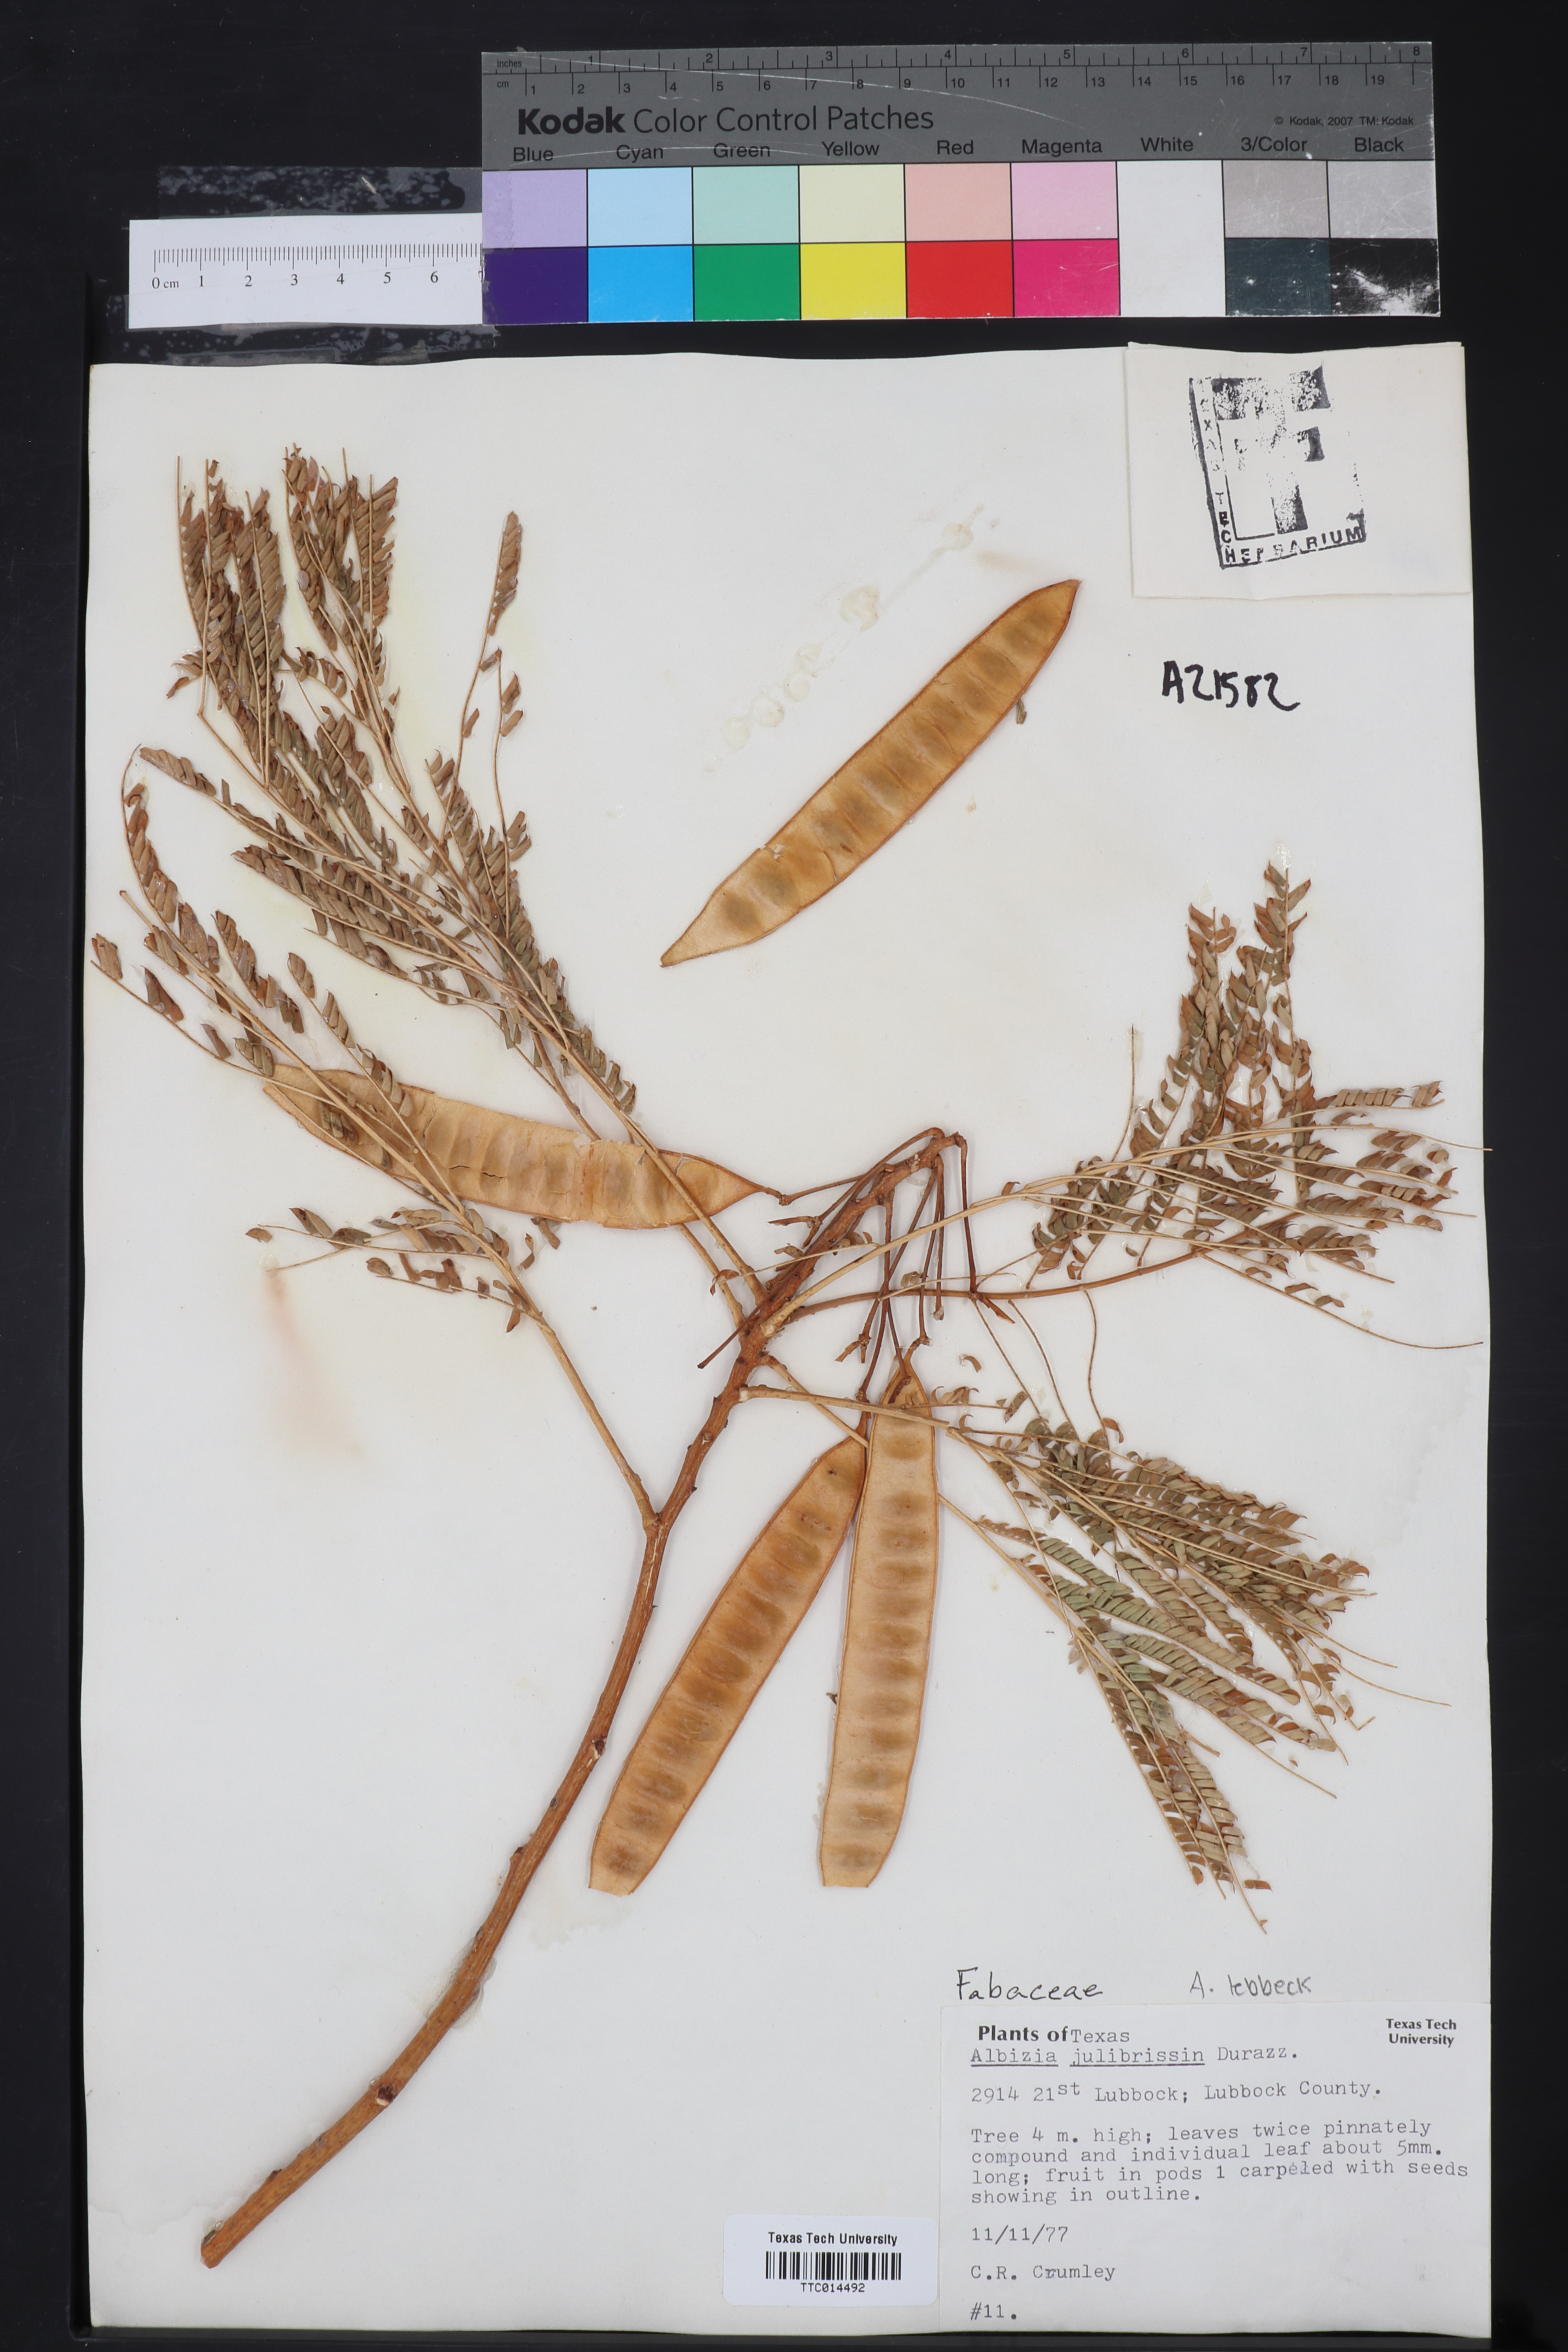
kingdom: Plantae
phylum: Tracheophyta
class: Magnoliopsida
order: Fabales
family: Fabaceae
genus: Albizia
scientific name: Albizia julibrissin
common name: Silktree
